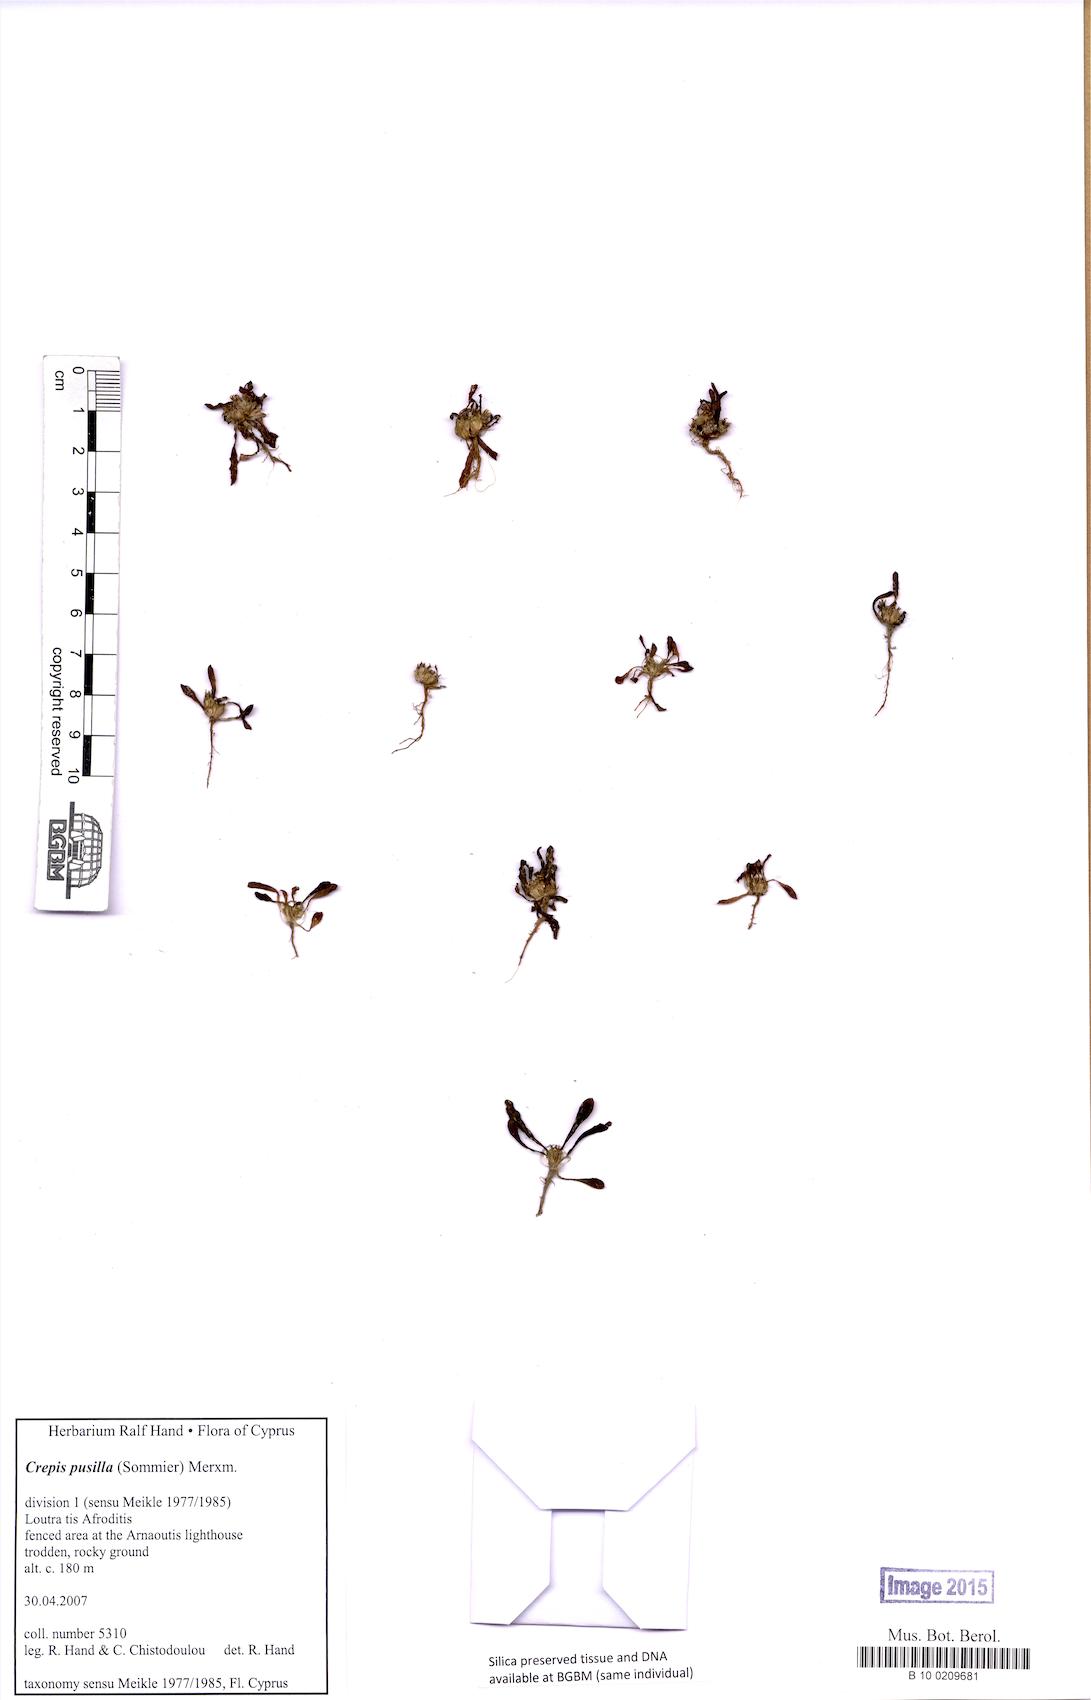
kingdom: Plantae
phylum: Tracheophyta
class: Magnoliopsida
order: Asterales
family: Asteraceae
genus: Crepis
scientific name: Crepis pusilla
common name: Dandelion crepis
